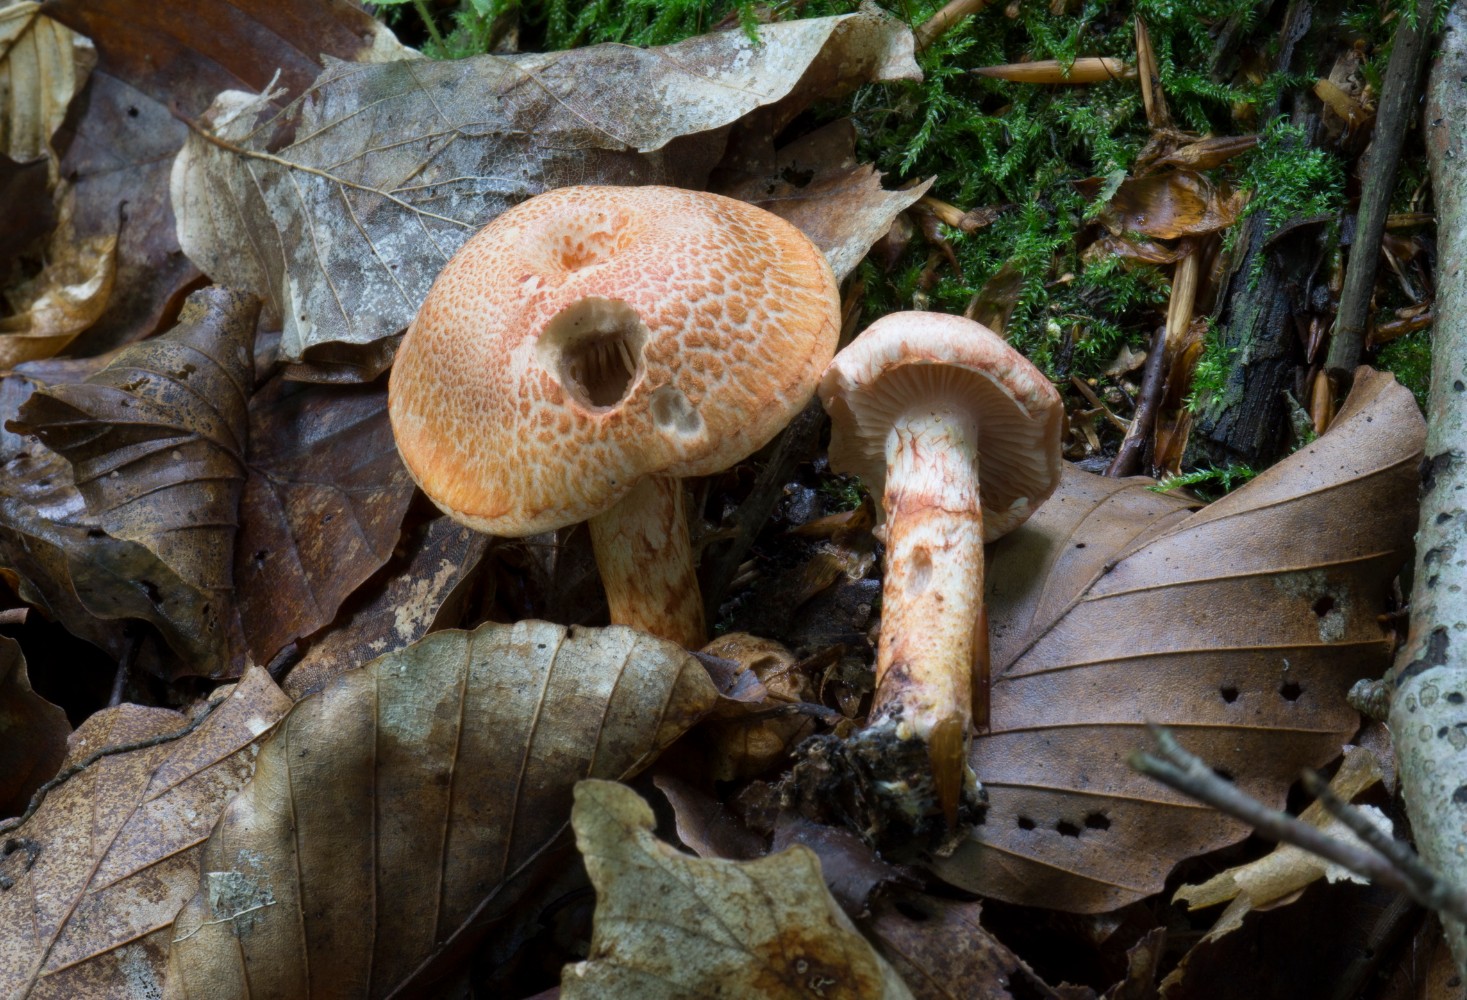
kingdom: Fungi
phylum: Basidiomycota
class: Agaricomycetes
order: Agaricales
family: Cortinariaceae
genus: Cortinarius
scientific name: Cortinarius bolaris
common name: cinnoberskællet slørhat
